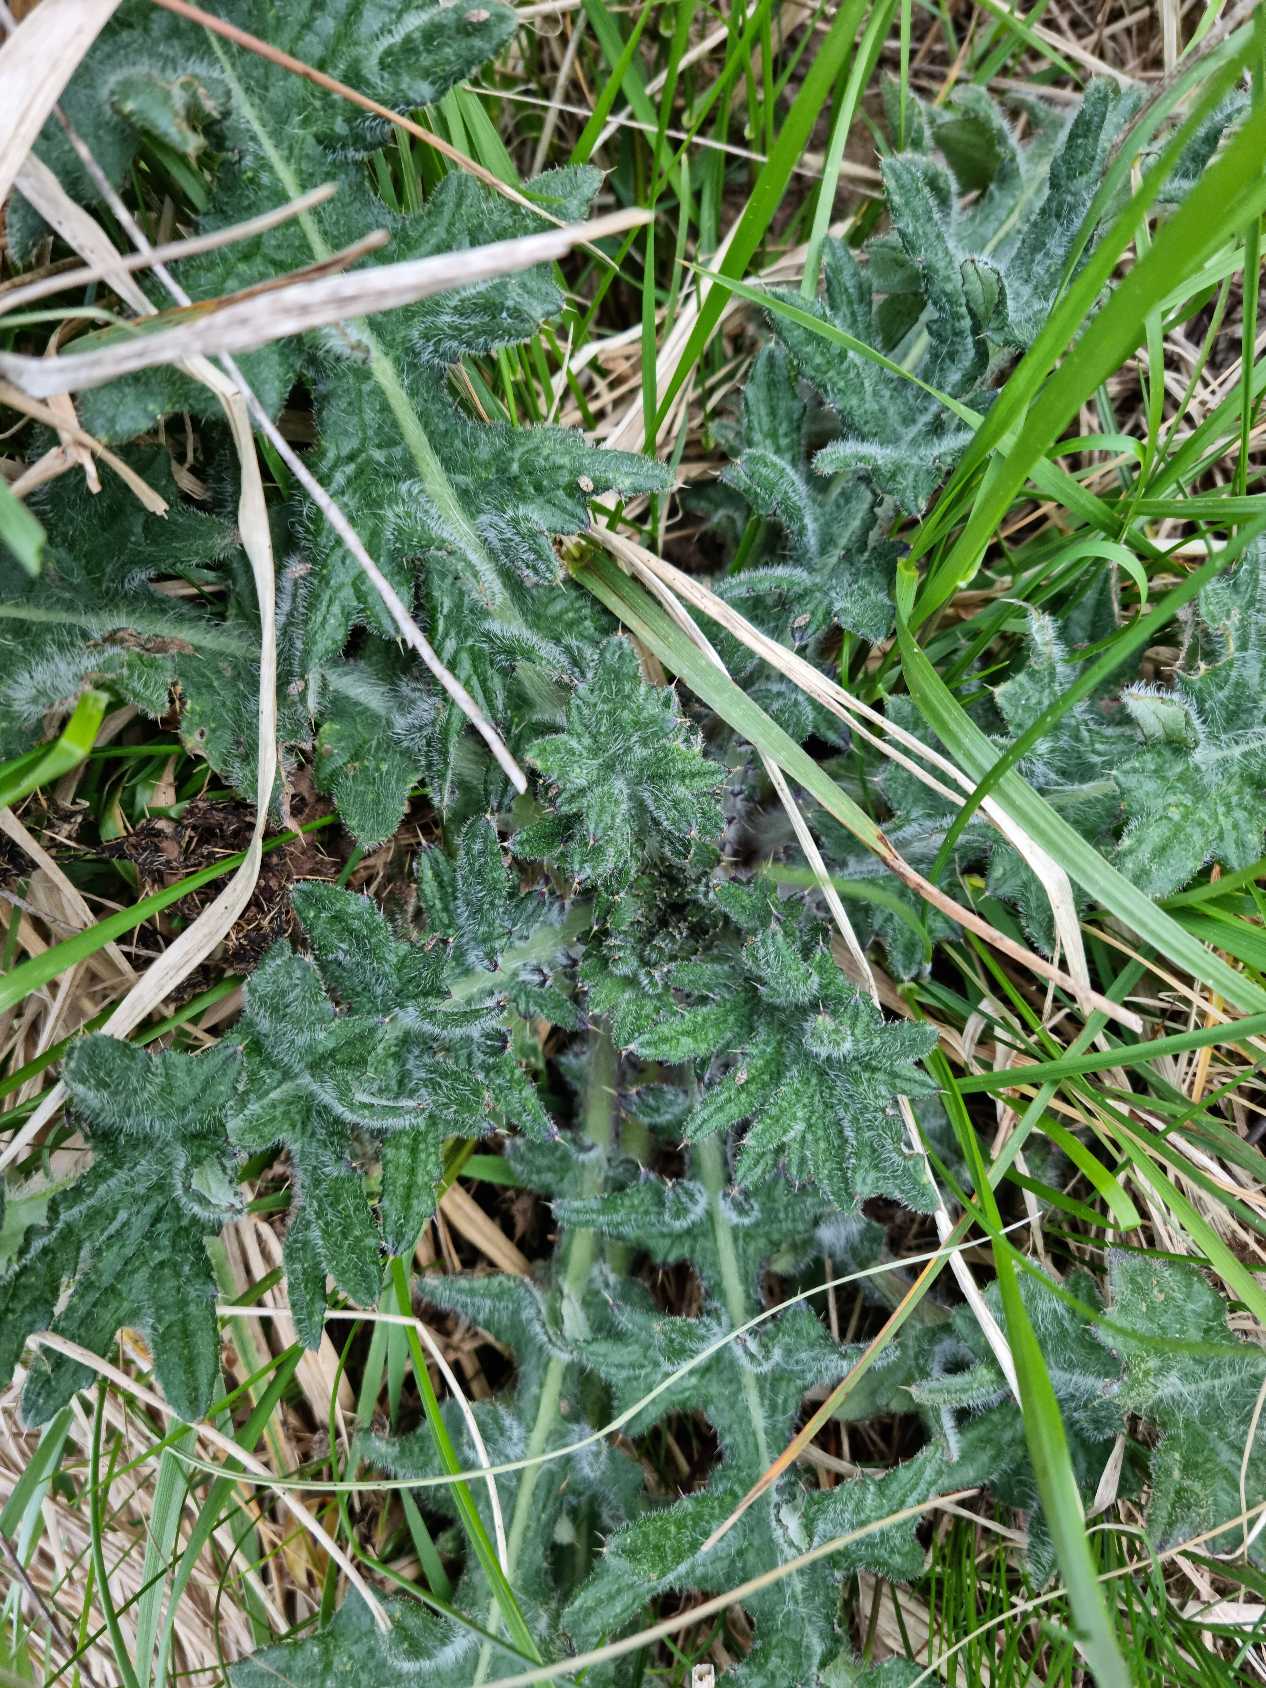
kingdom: Plantae
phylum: Tracheophyta
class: Magnoliopsida
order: Asterales
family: Asteraceae
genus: Cirsium
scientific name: Cirsium vulgare
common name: Horse-tidsel
